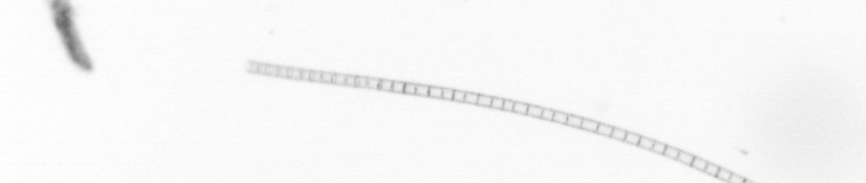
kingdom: Chromista
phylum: Ochrophyta
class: Bacillariophyceae
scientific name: Bacillariophyceae
